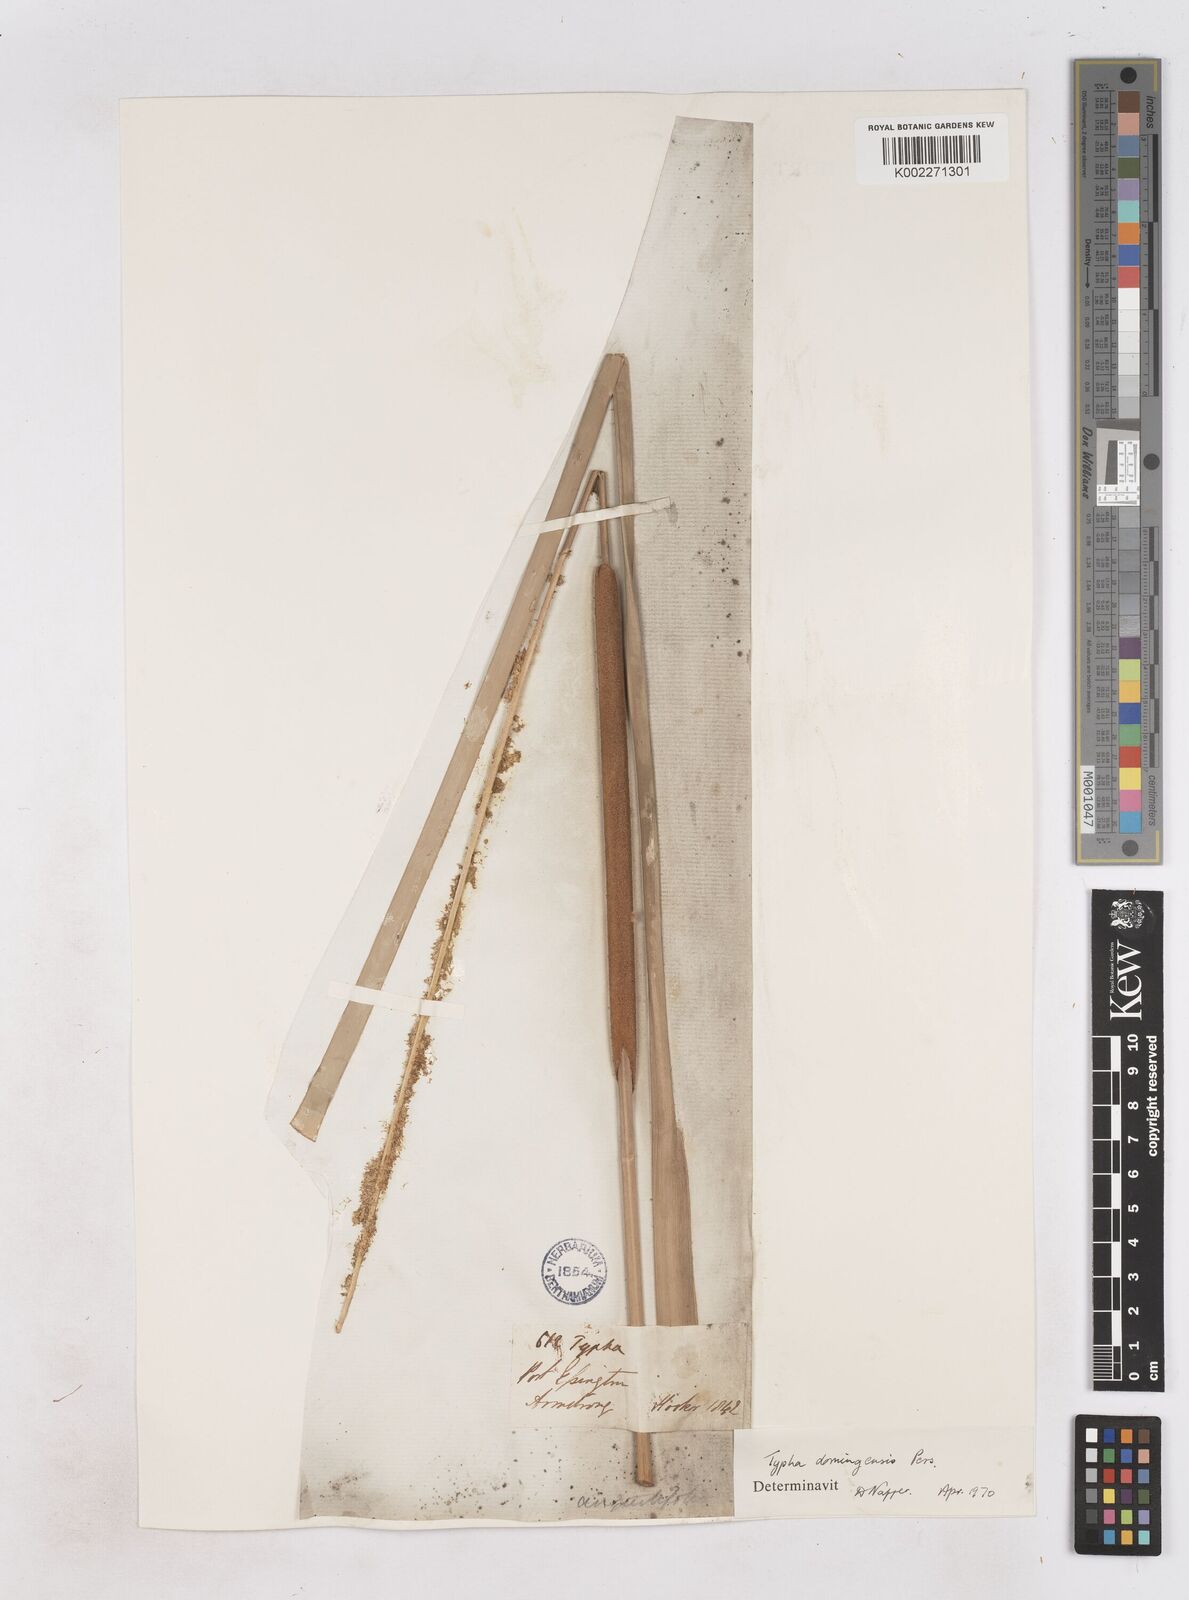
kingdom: Plantae
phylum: Tracheophyta
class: Liliopsida
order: Poales
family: Typhaceae
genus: Typha
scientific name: Typha domingensis
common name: Southern cattail
